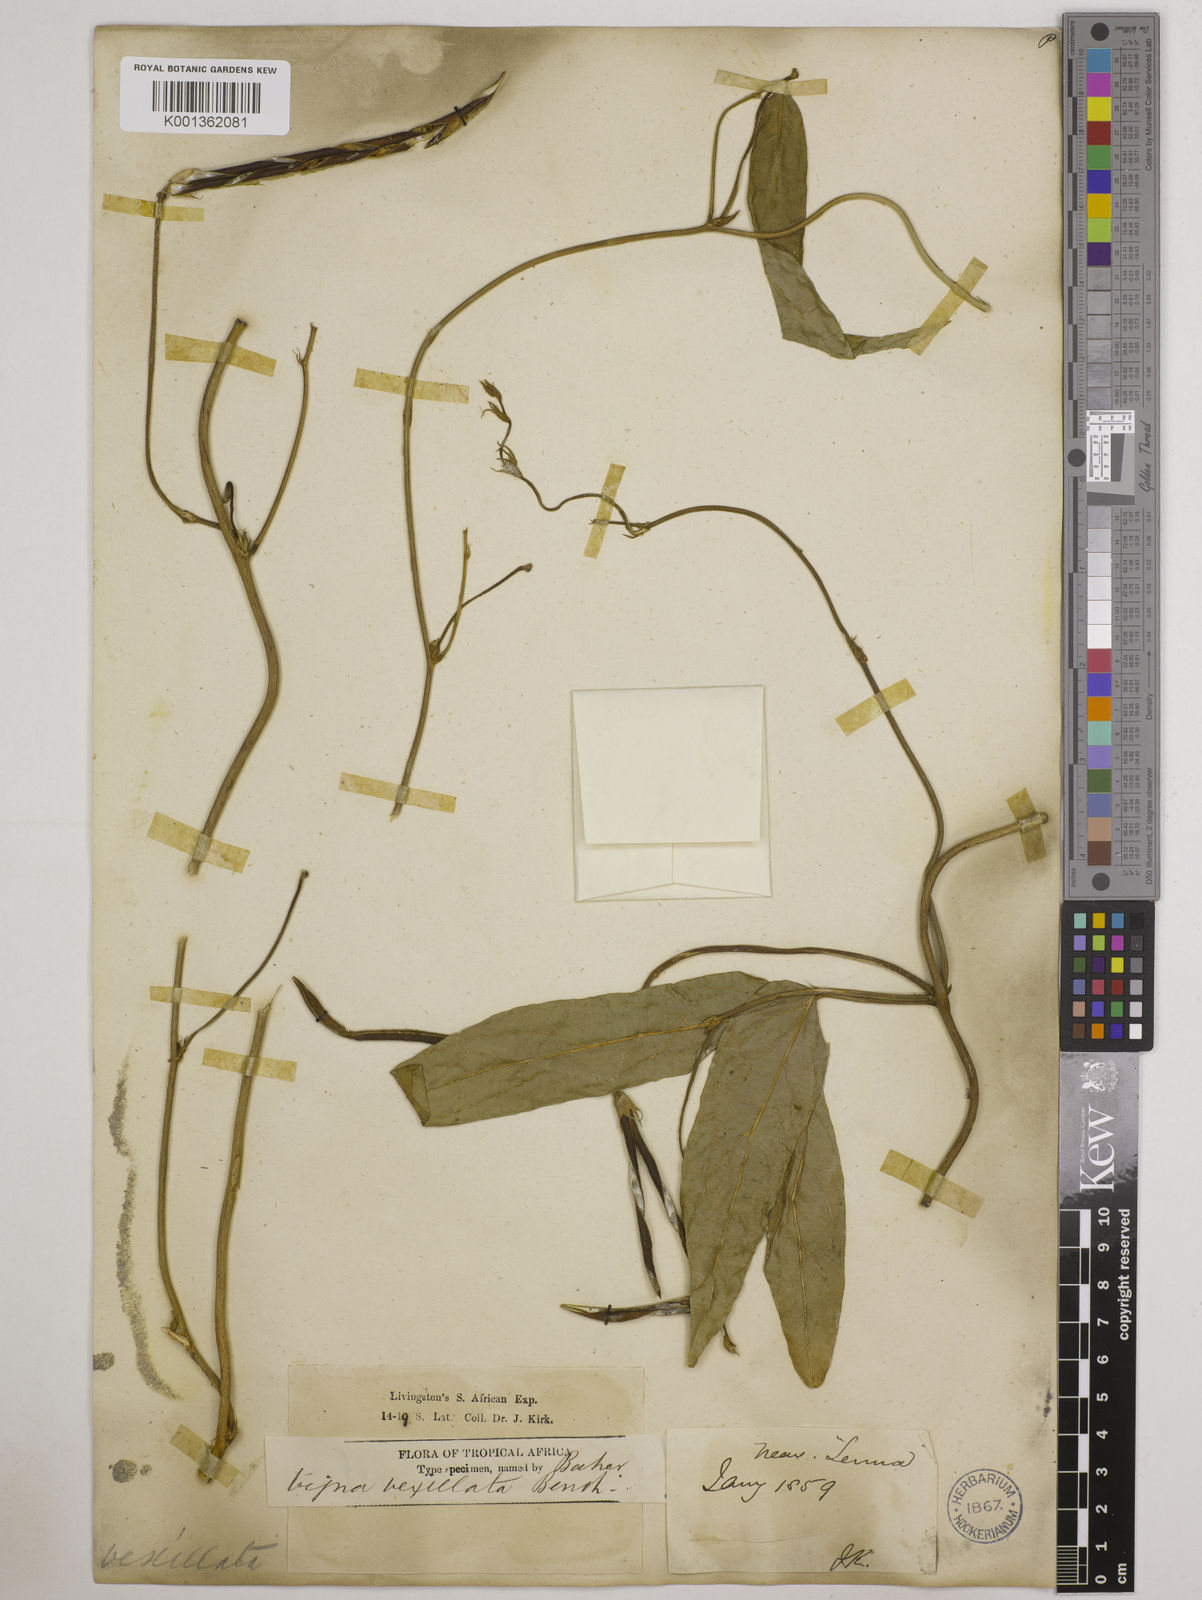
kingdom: Plantae
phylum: Tracheophyta
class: Magnoliopsida
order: Fabales
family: Fabaceae
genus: Vigna
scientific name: Vigna vexillata
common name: Zombi pea
